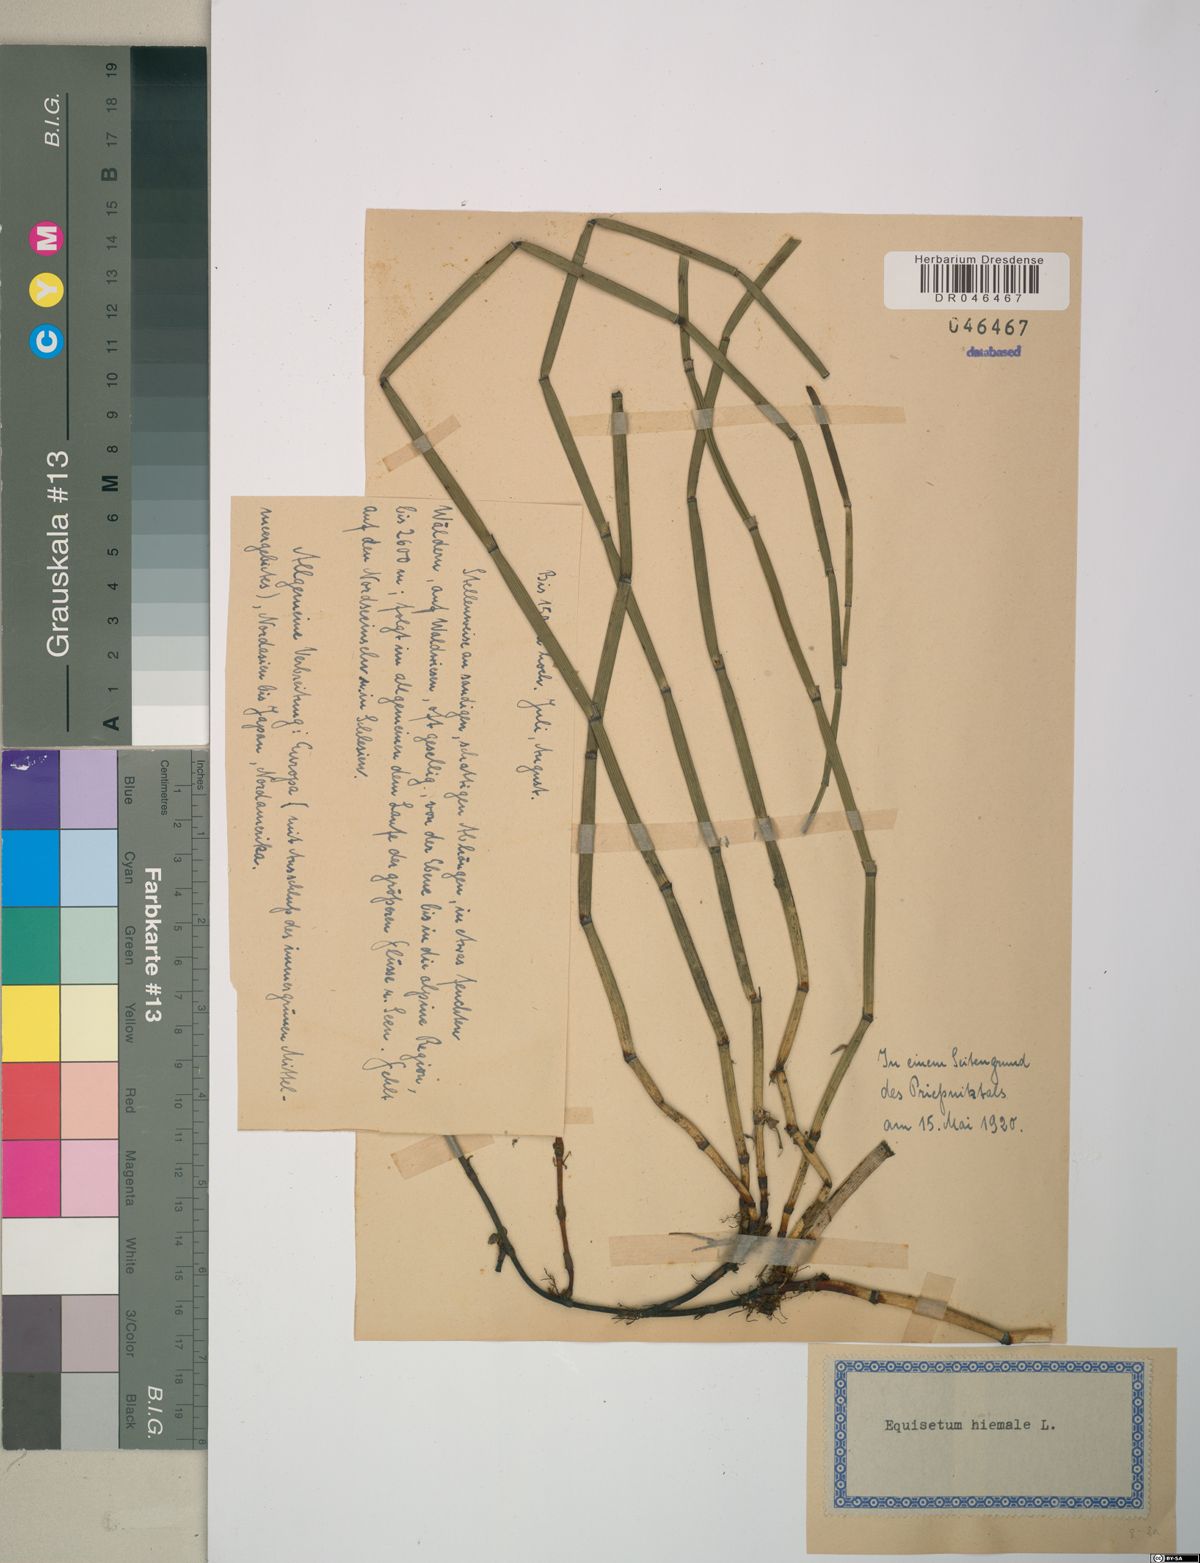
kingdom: Plantae
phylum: Tracheophyta
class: Polypodiopsida
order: Equisetales
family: Equisetaceae
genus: Equisetum
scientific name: Equisetum hyemale
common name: Rough horsetail
